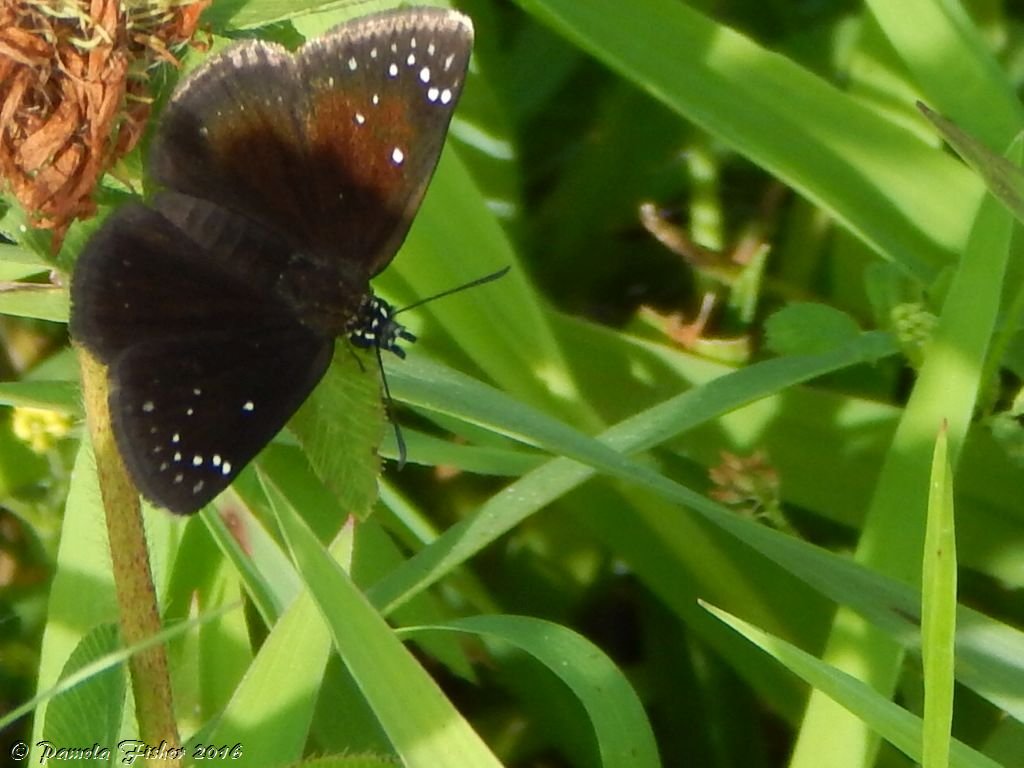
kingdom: Animalia
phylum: Arthropoda
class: Insecta
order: Lepidoptera
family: Hesperiidae
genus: Pholisora
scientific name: Pholisora catullus
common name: Common Sootywing
